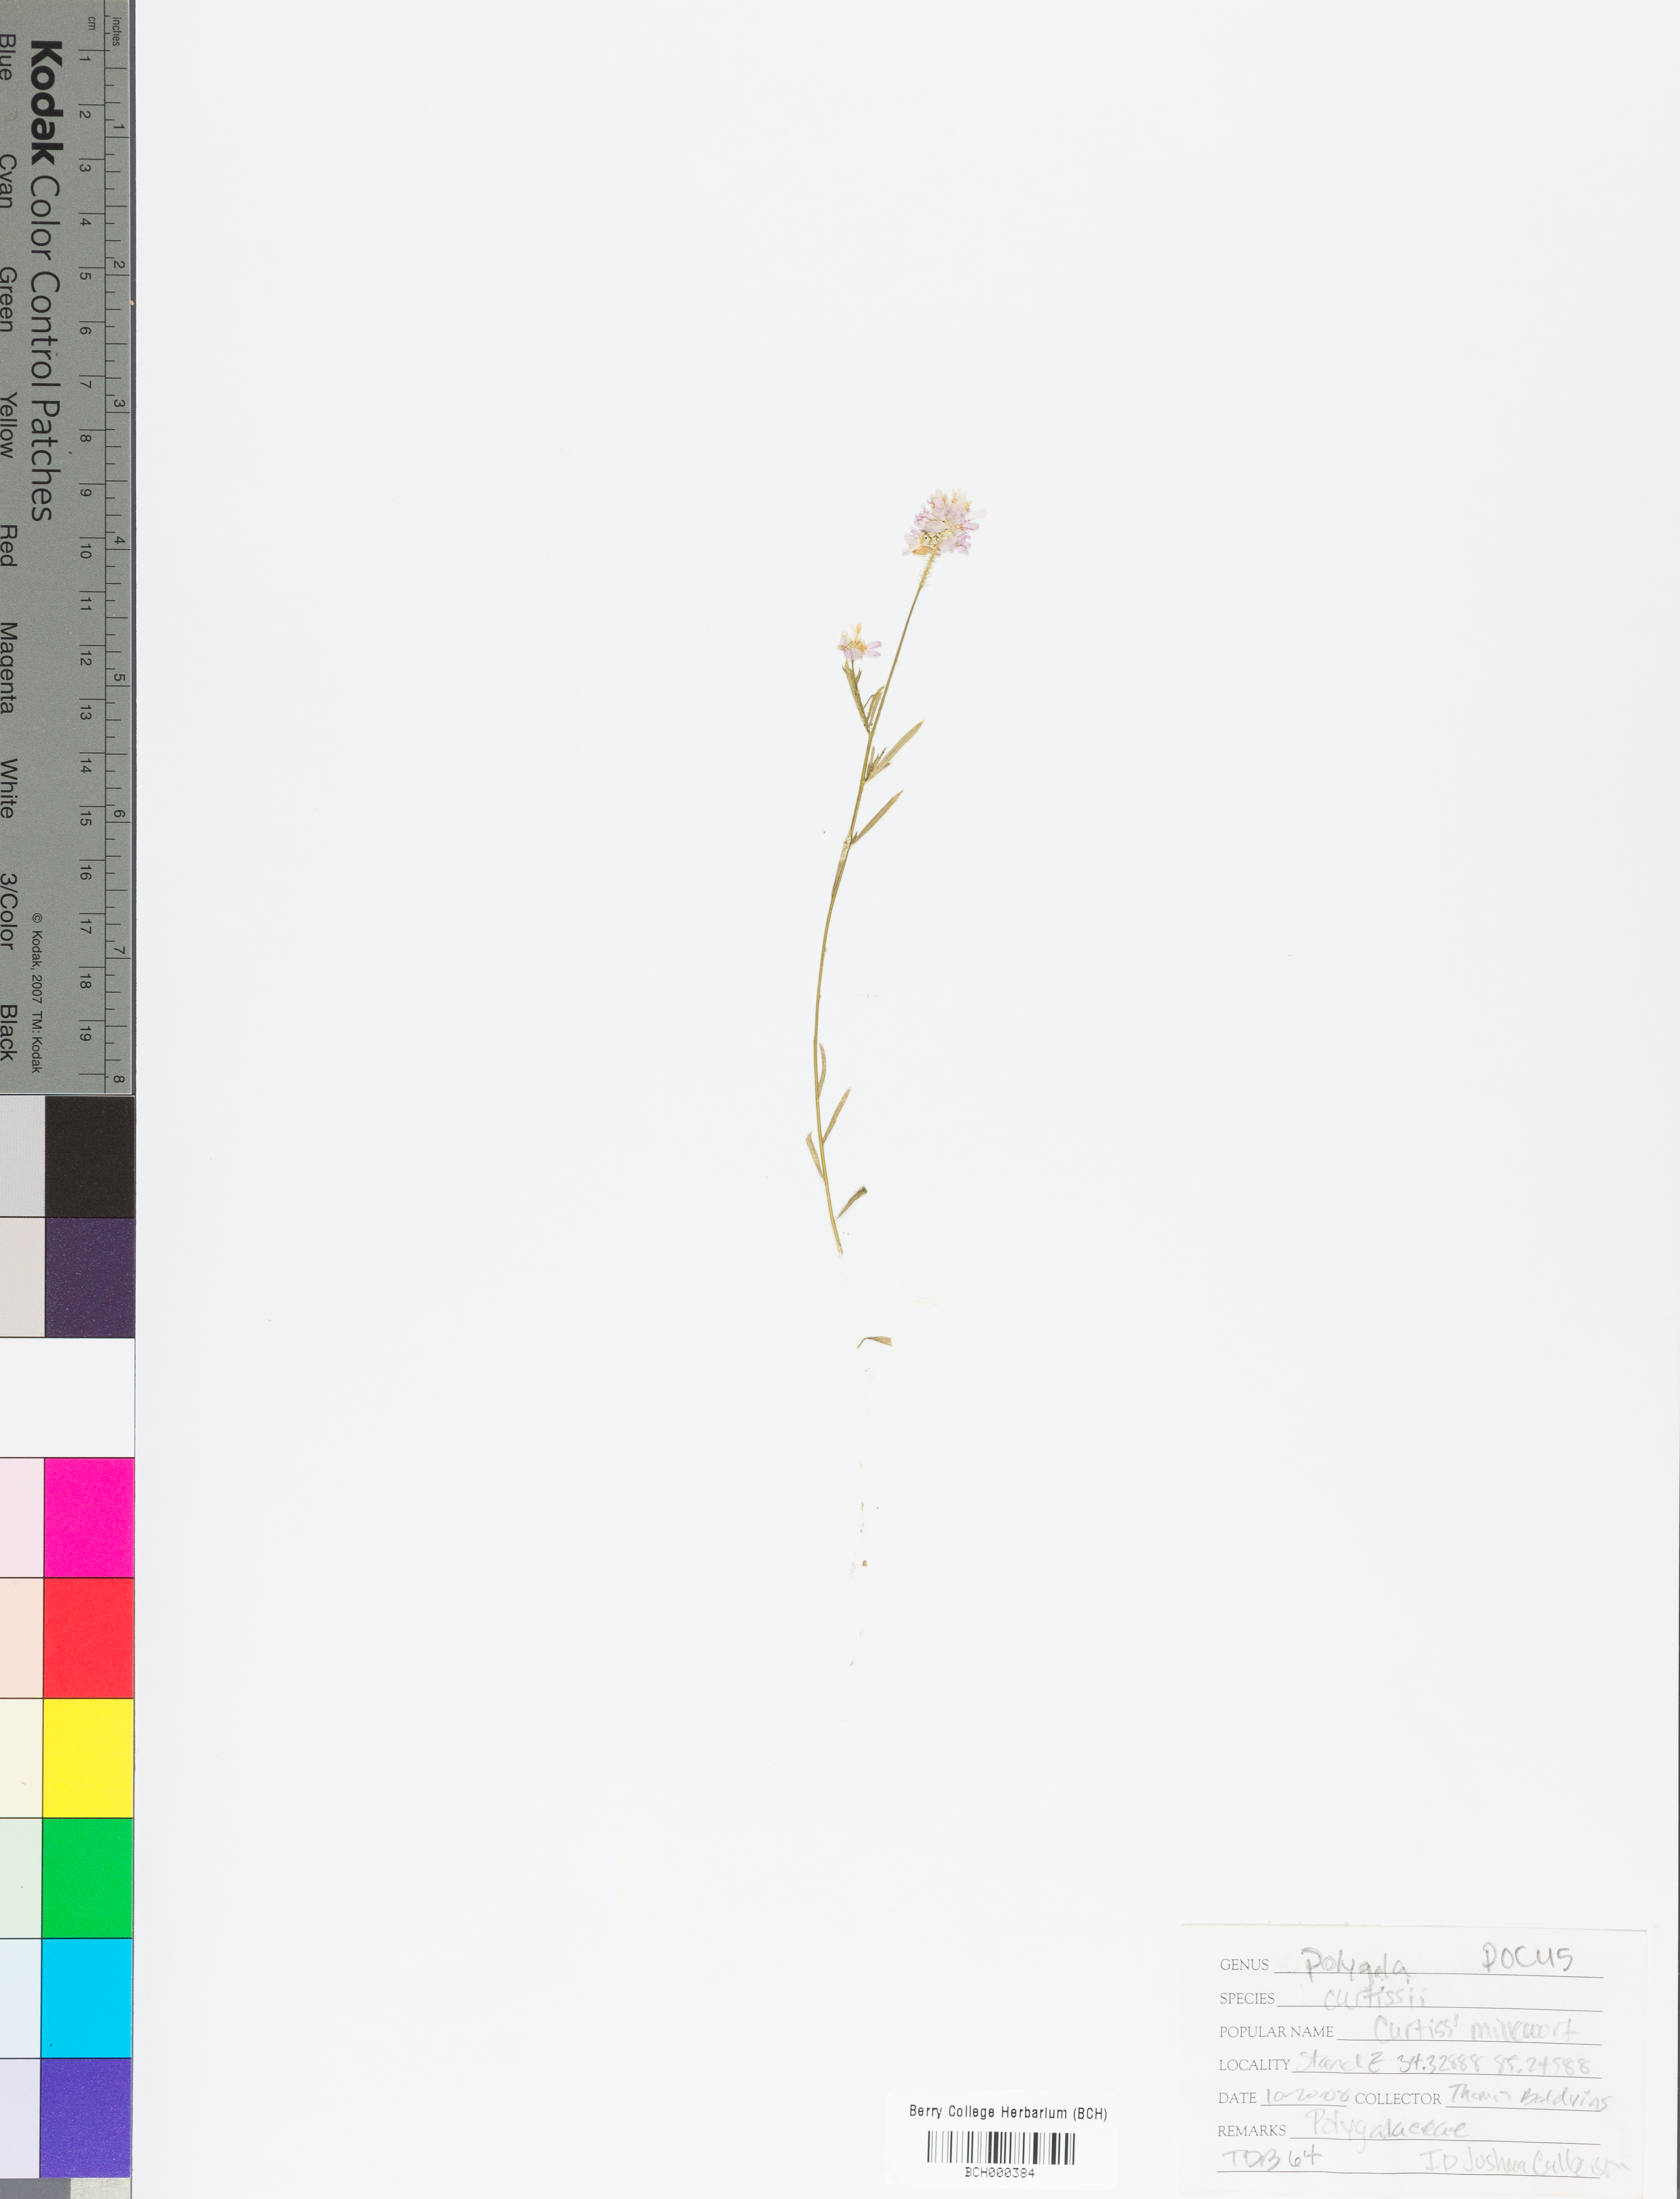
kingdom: Plantae
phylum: Tracheophyta
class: Magnoliopsida
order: Fabales
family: Polygalaceae
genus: Polygala
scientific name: Polygala curtissii
